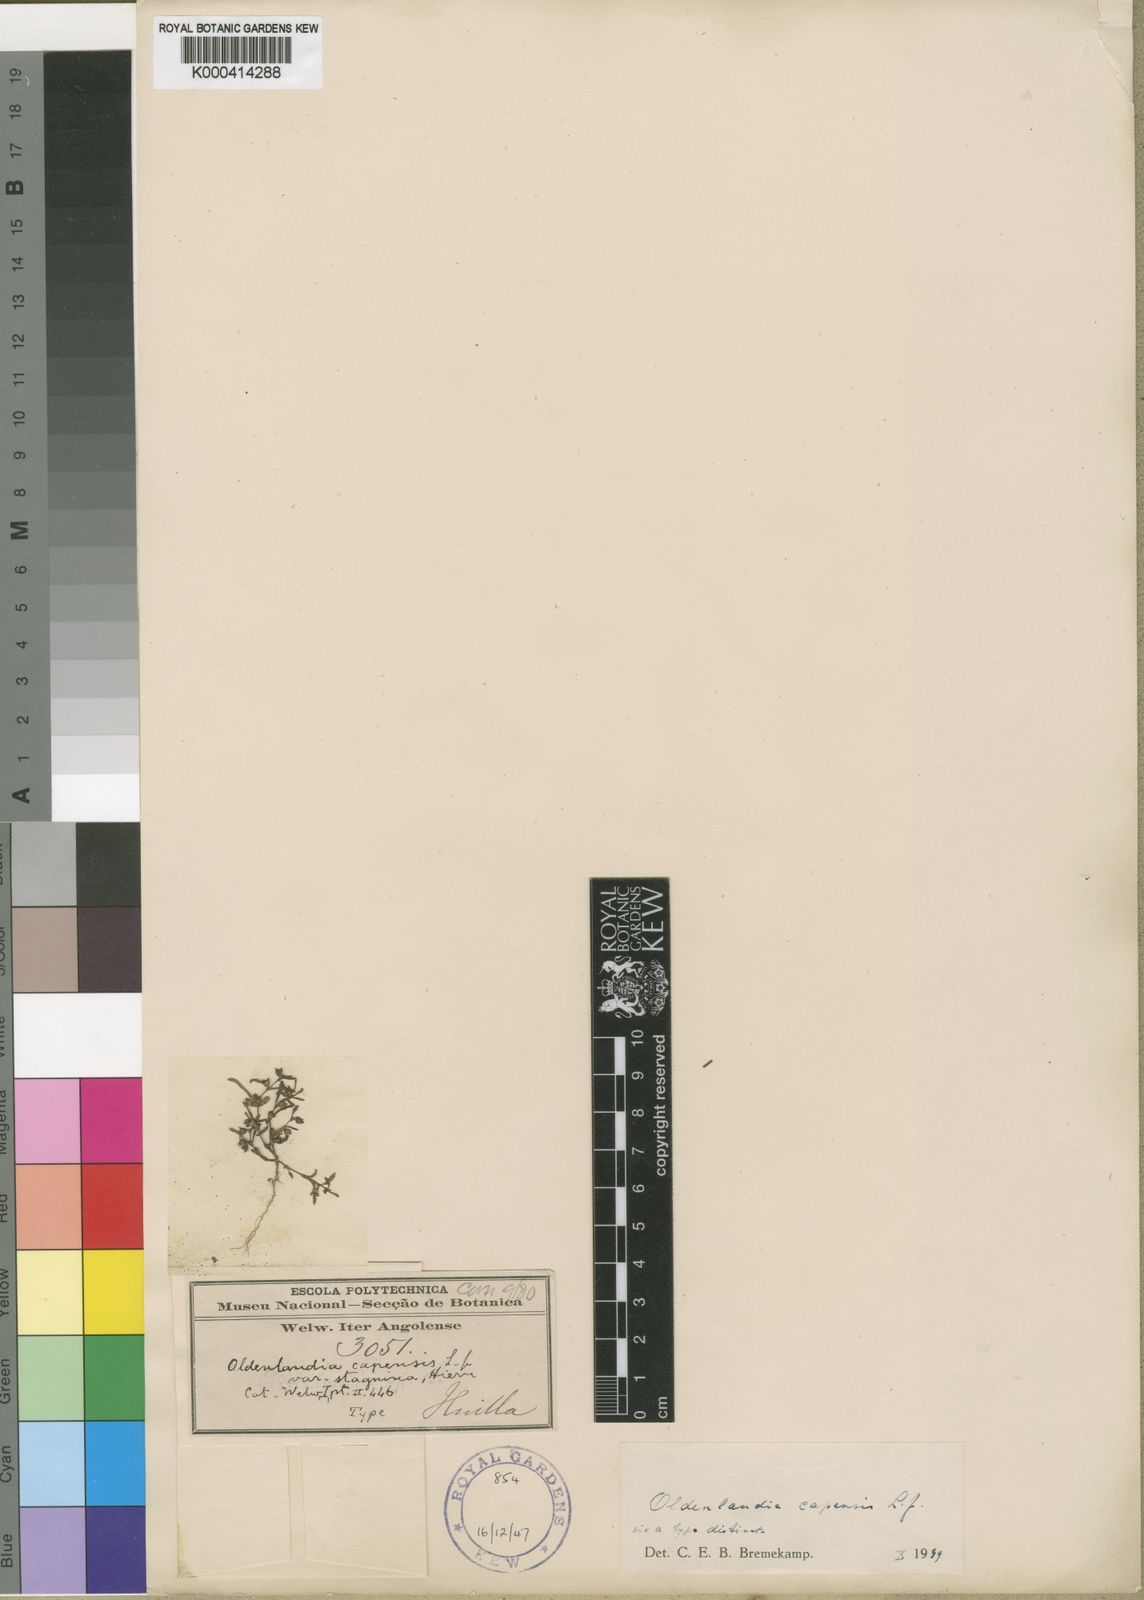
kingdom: Plantae
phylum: Tracheophyta
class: Magnoliopsida
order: Gentianales
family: Rubiaceae
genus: Oldenlandia
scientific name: Oldenlandia capensis
